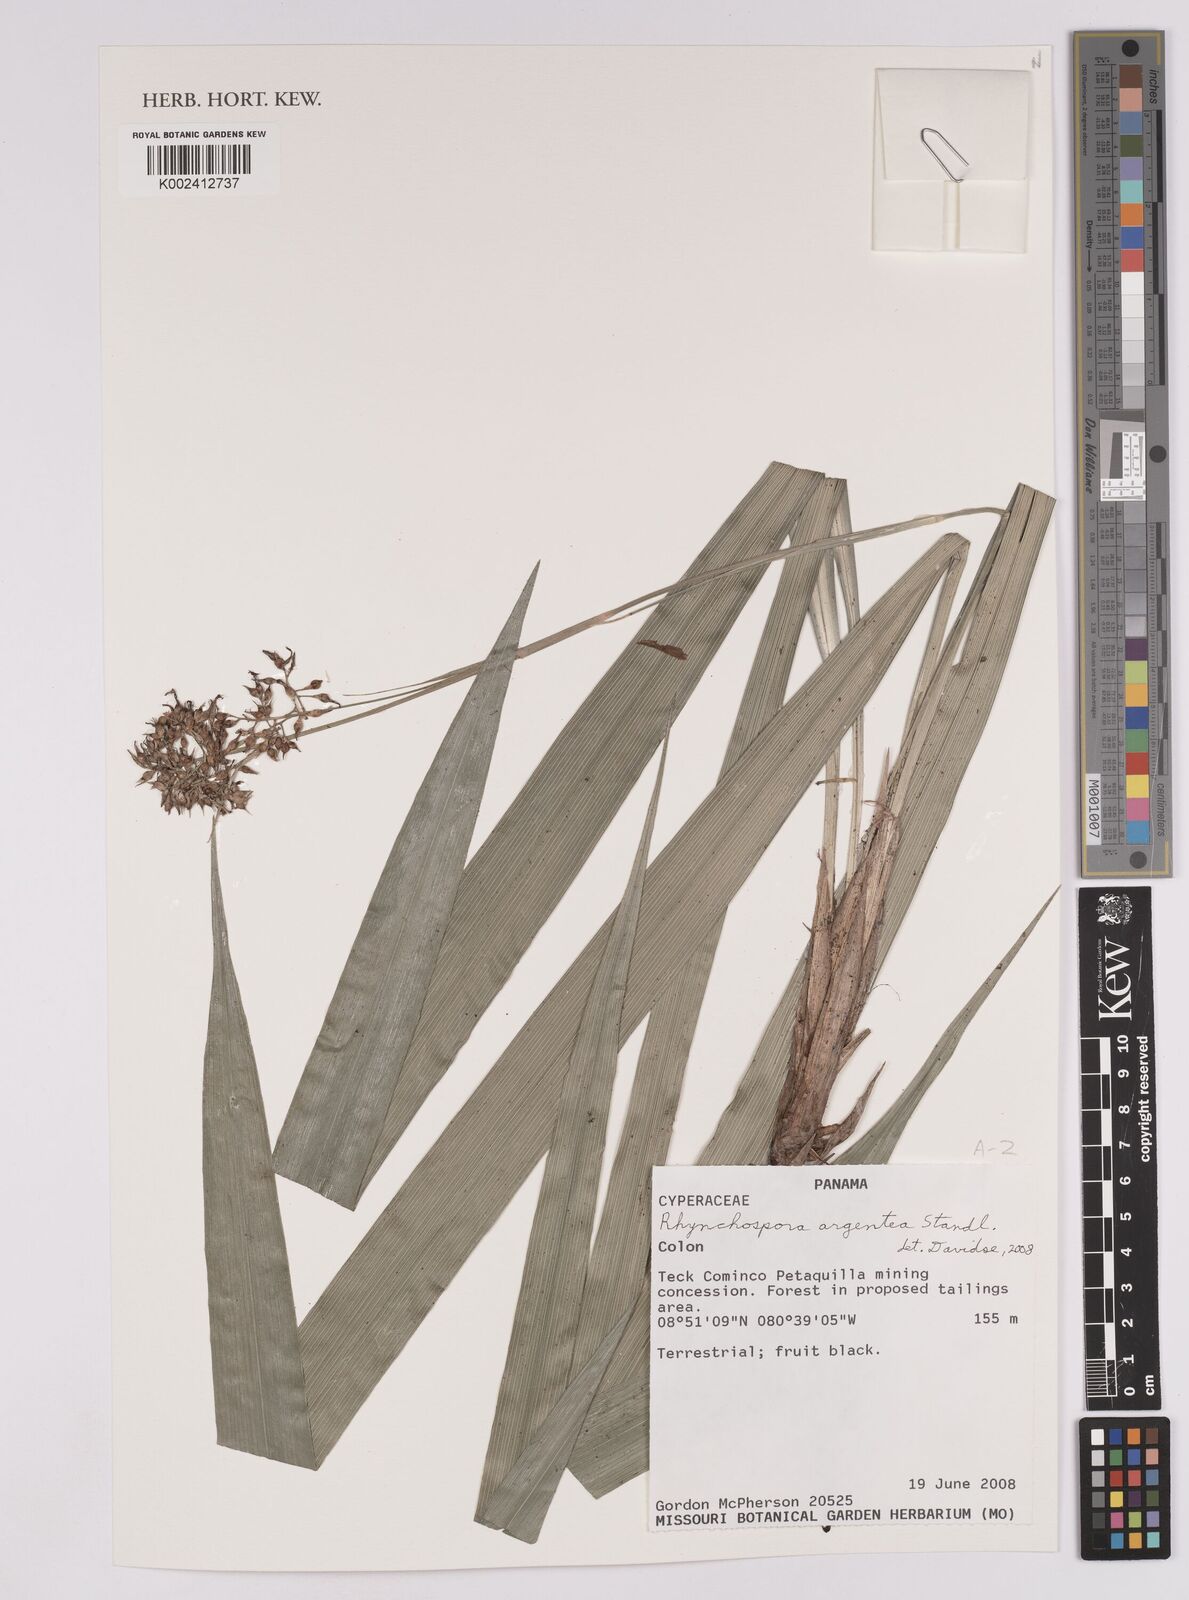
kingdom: Plantae
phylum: Tracheophyta
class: Liliopsida
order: Poales
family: Cyperaceae
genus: Rhynchospora
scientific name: Rhynchospora argentea
